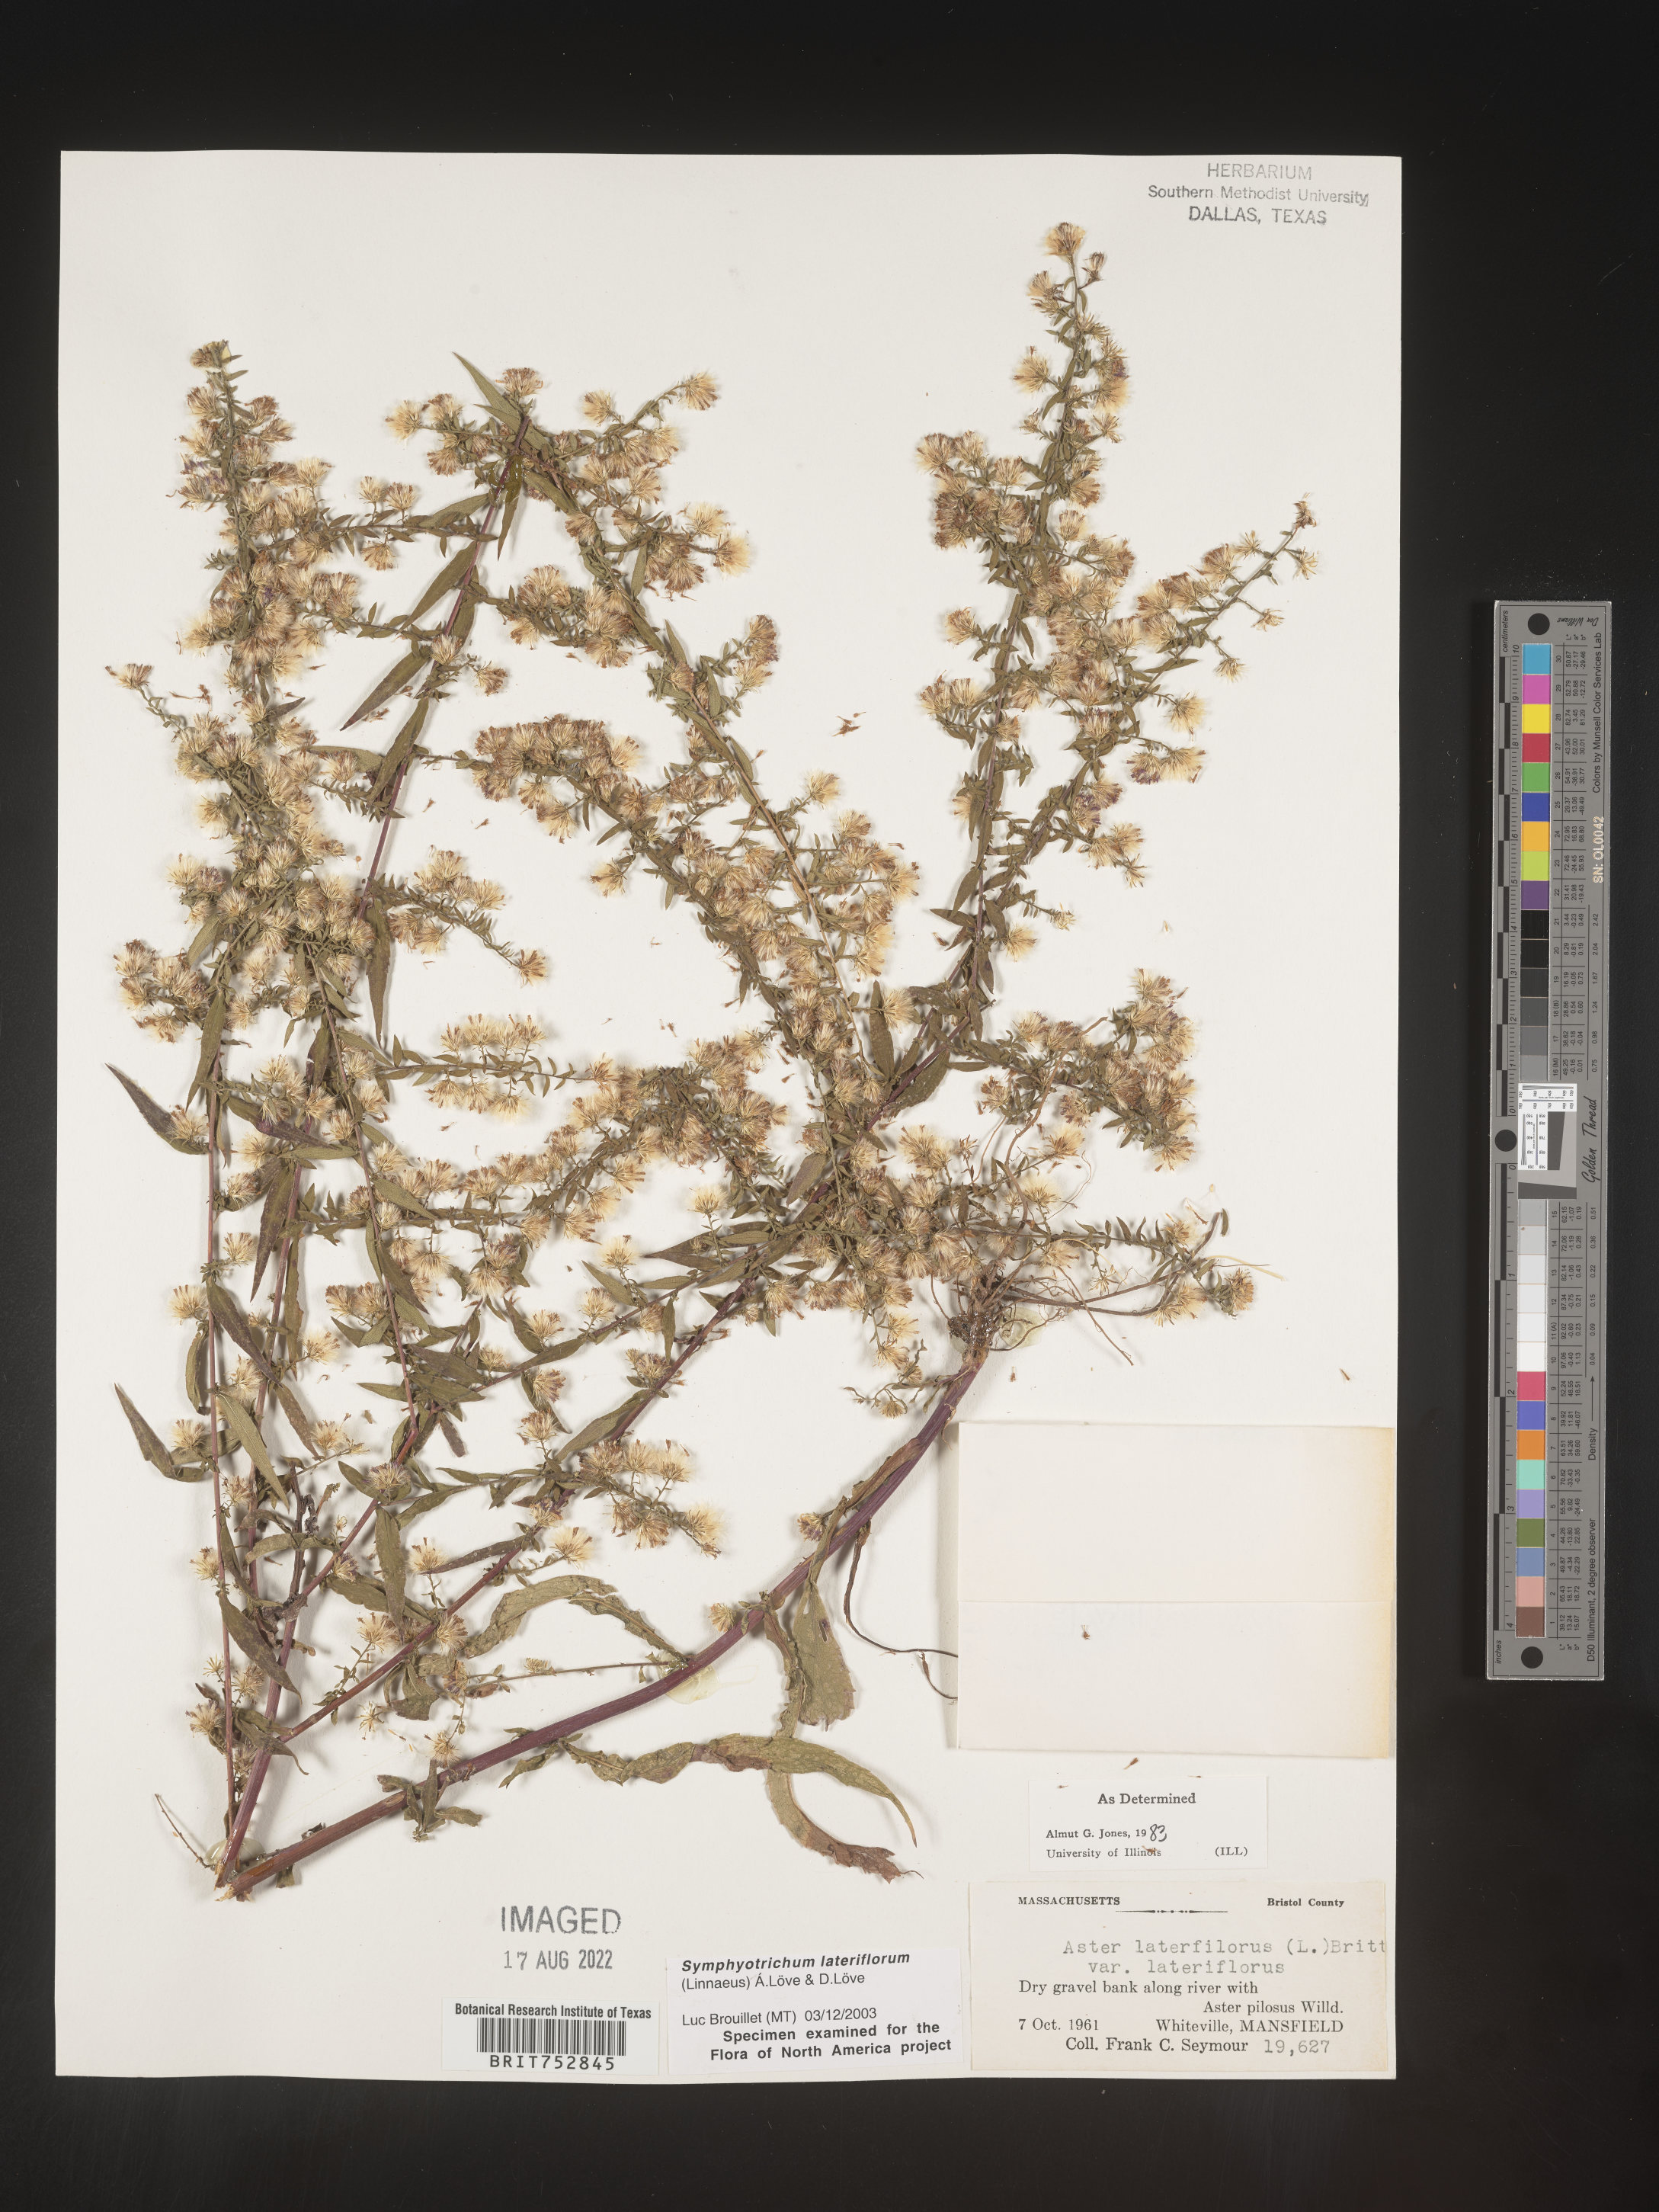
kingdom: Plantae
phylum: Tracheophyta
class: Magnoliopsida
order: Asterales
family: Asteraceae
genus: Symphyotrichum
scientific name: Symphyotrichum lateriflorum
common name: Calico aster
